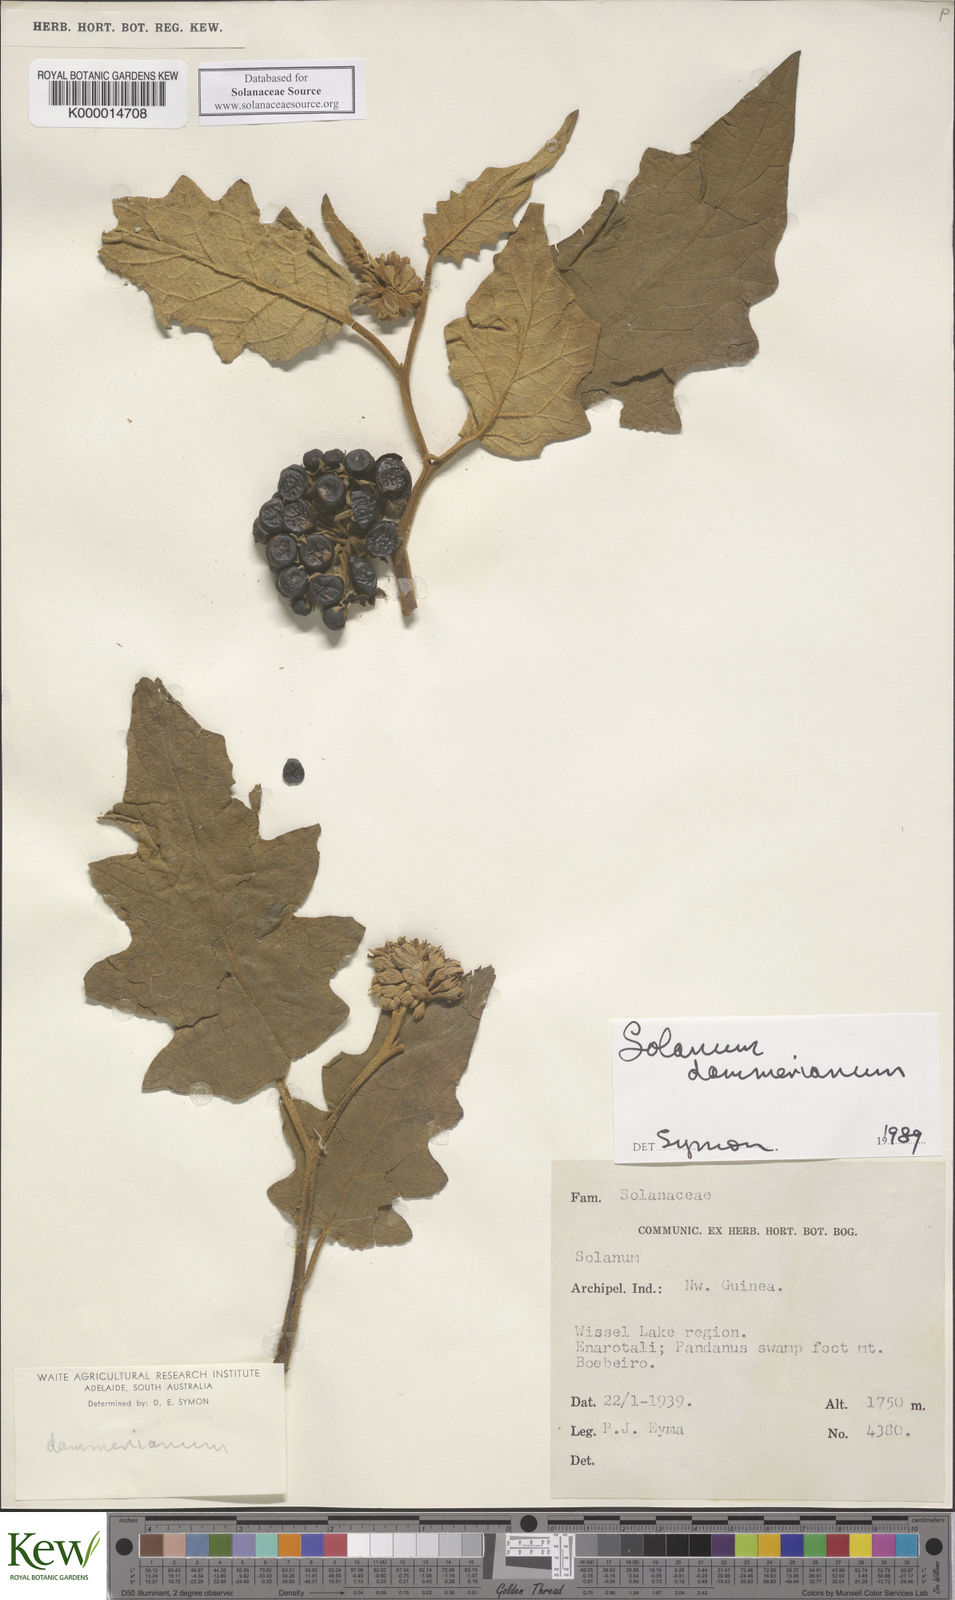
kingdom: Plantae
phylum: Tracheophyta
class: Magnoliopsida
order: Solanales
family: Solanaceae
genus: Solanum
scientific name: Solanum dammerianum
